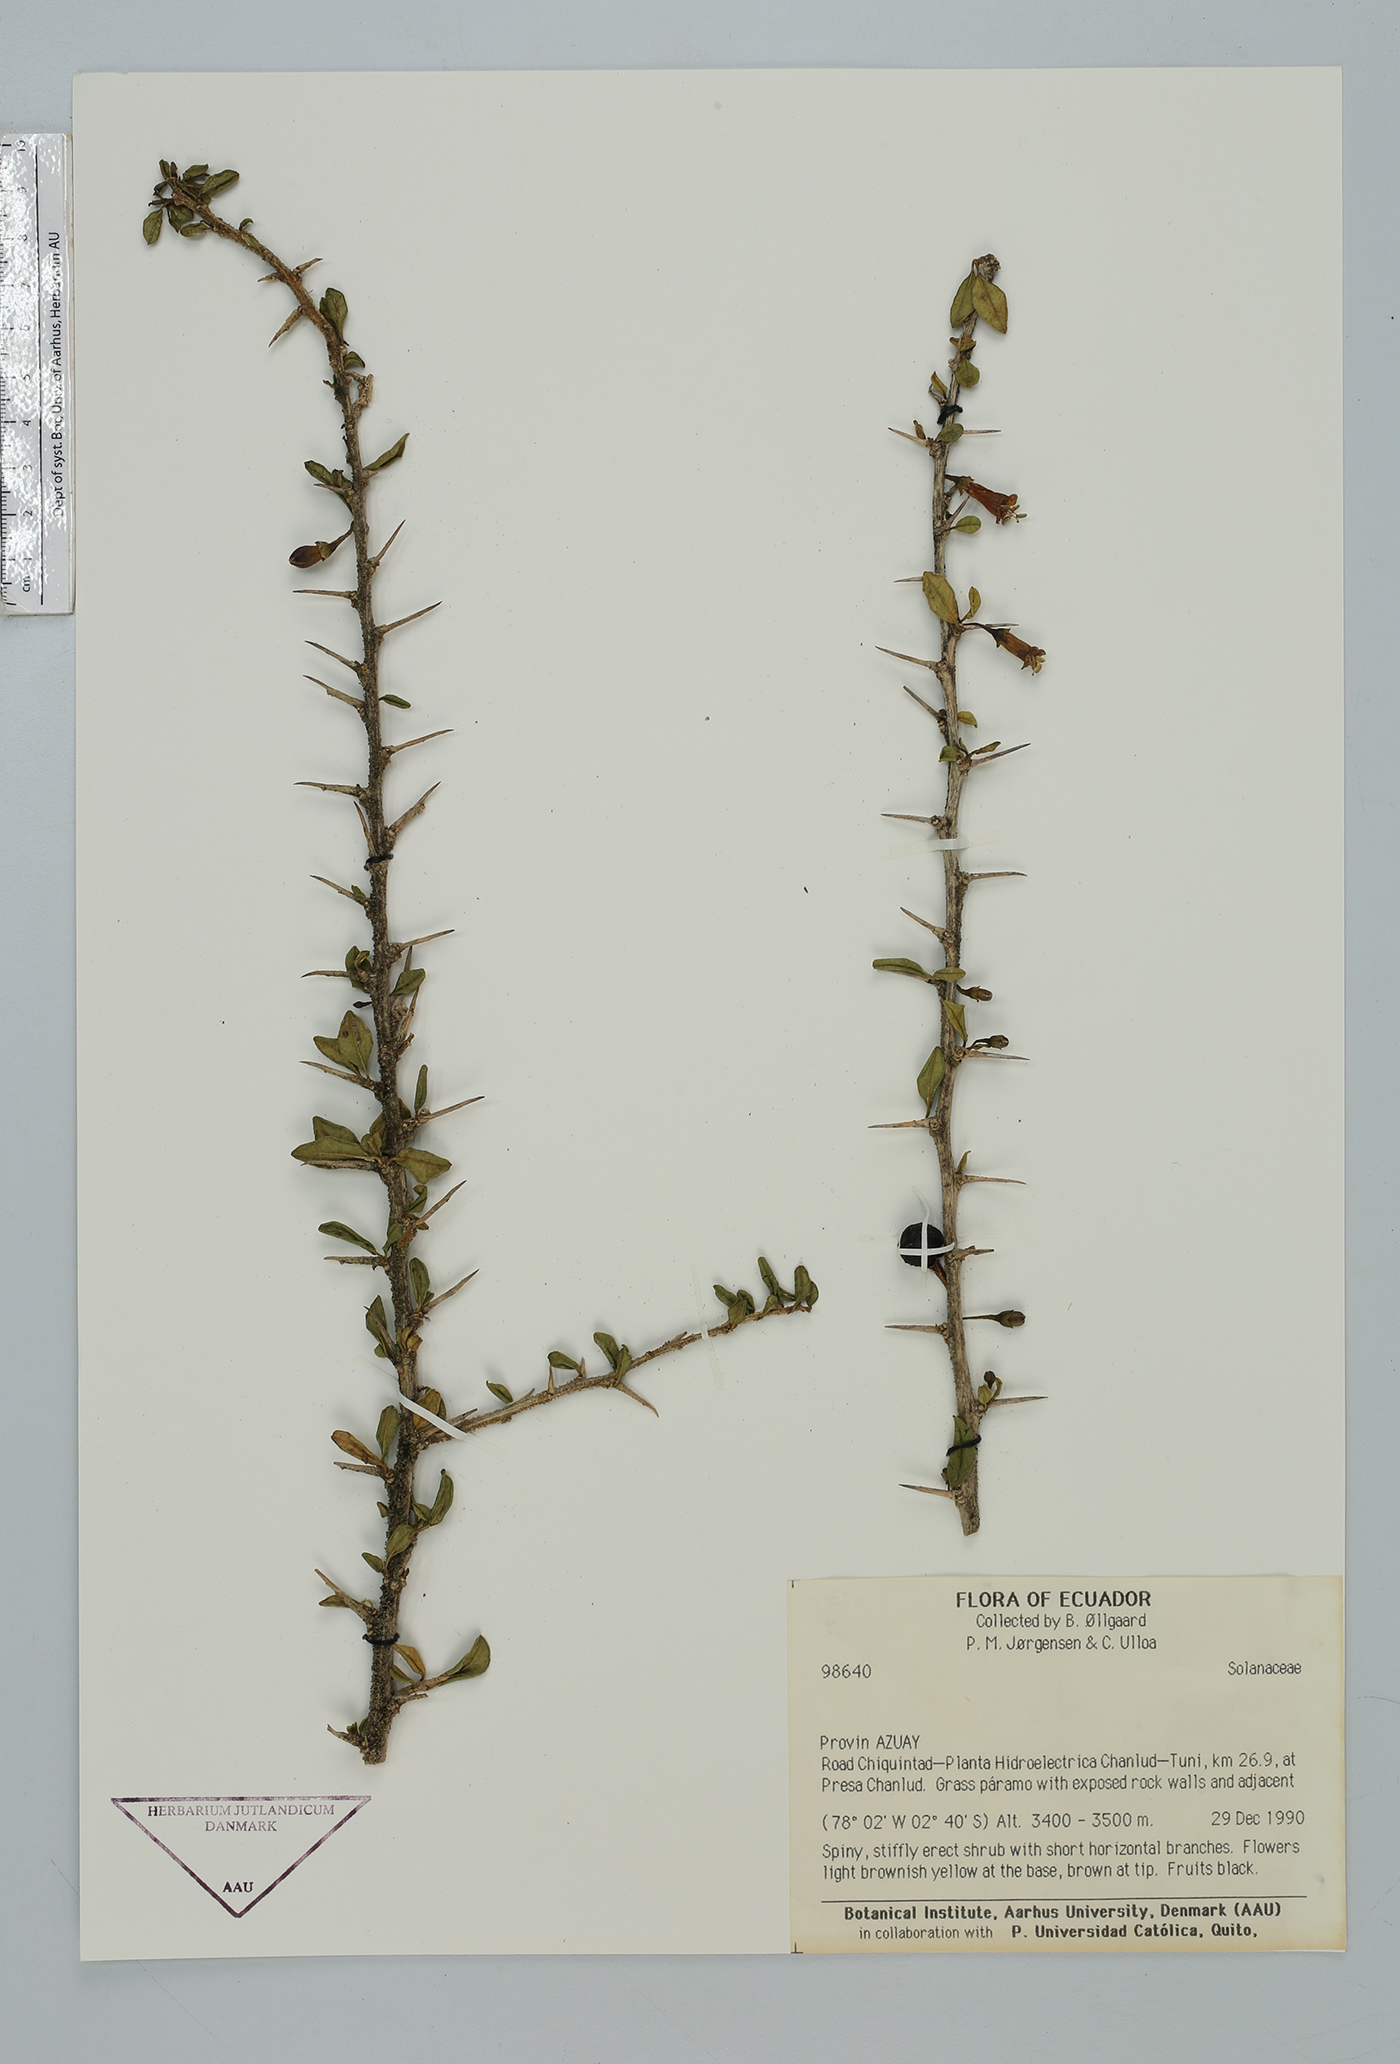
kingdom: Plantae
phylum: Tracheophyta
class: Magnoliopsida
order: Solanales
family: Solanaceae
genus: Lycium
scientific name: Lycium boerhaaviifolium
